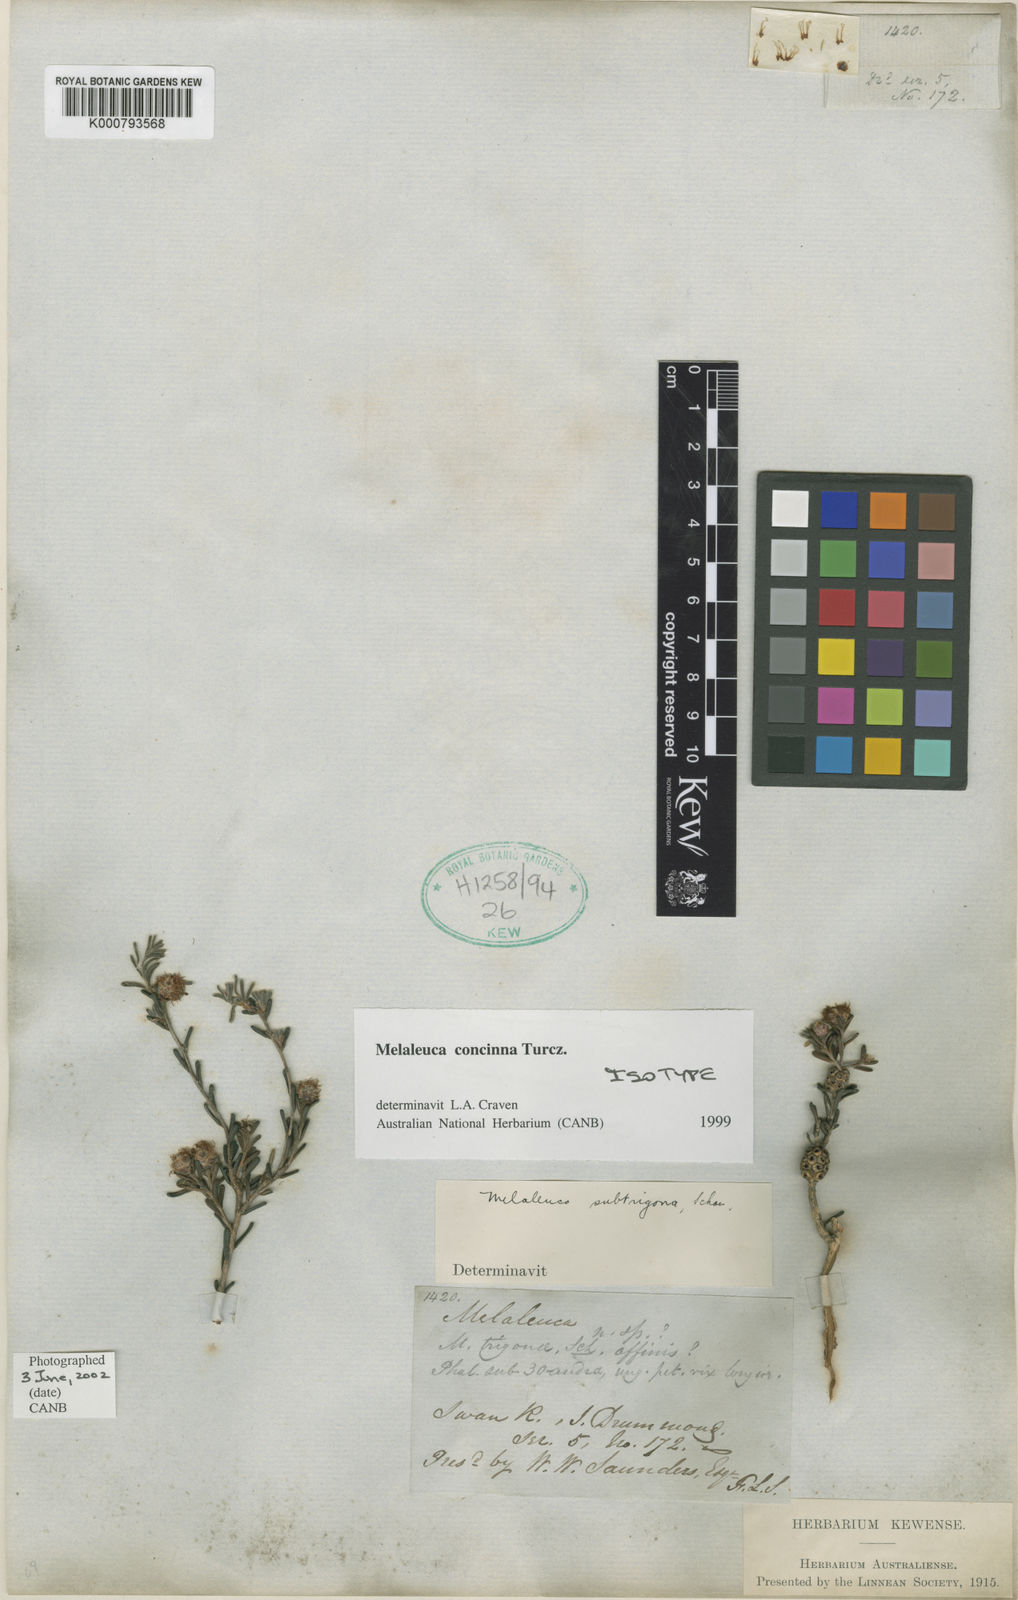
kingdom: Plantae
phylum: Tracheophyta
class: Magnoliopsida
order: Myrtales
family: Myrtaceae
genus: Melaleuca
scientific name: Melaleuca concinna
